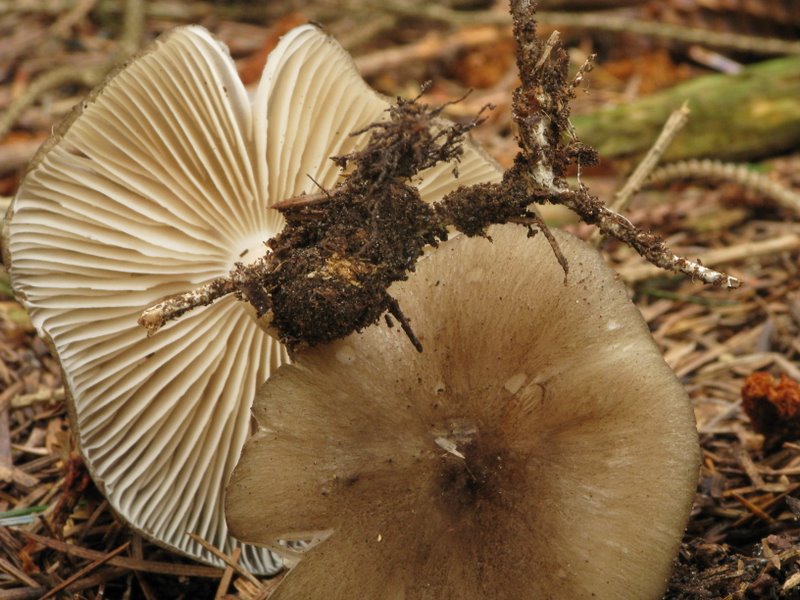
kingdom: Fungi
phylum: Basidiomycota
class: Agaricomycetes
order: Agaricales
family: Tricholomataceae
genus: Megacollybia
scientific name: Megacollybia platyphylla
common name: bredbladet væbnerhat
